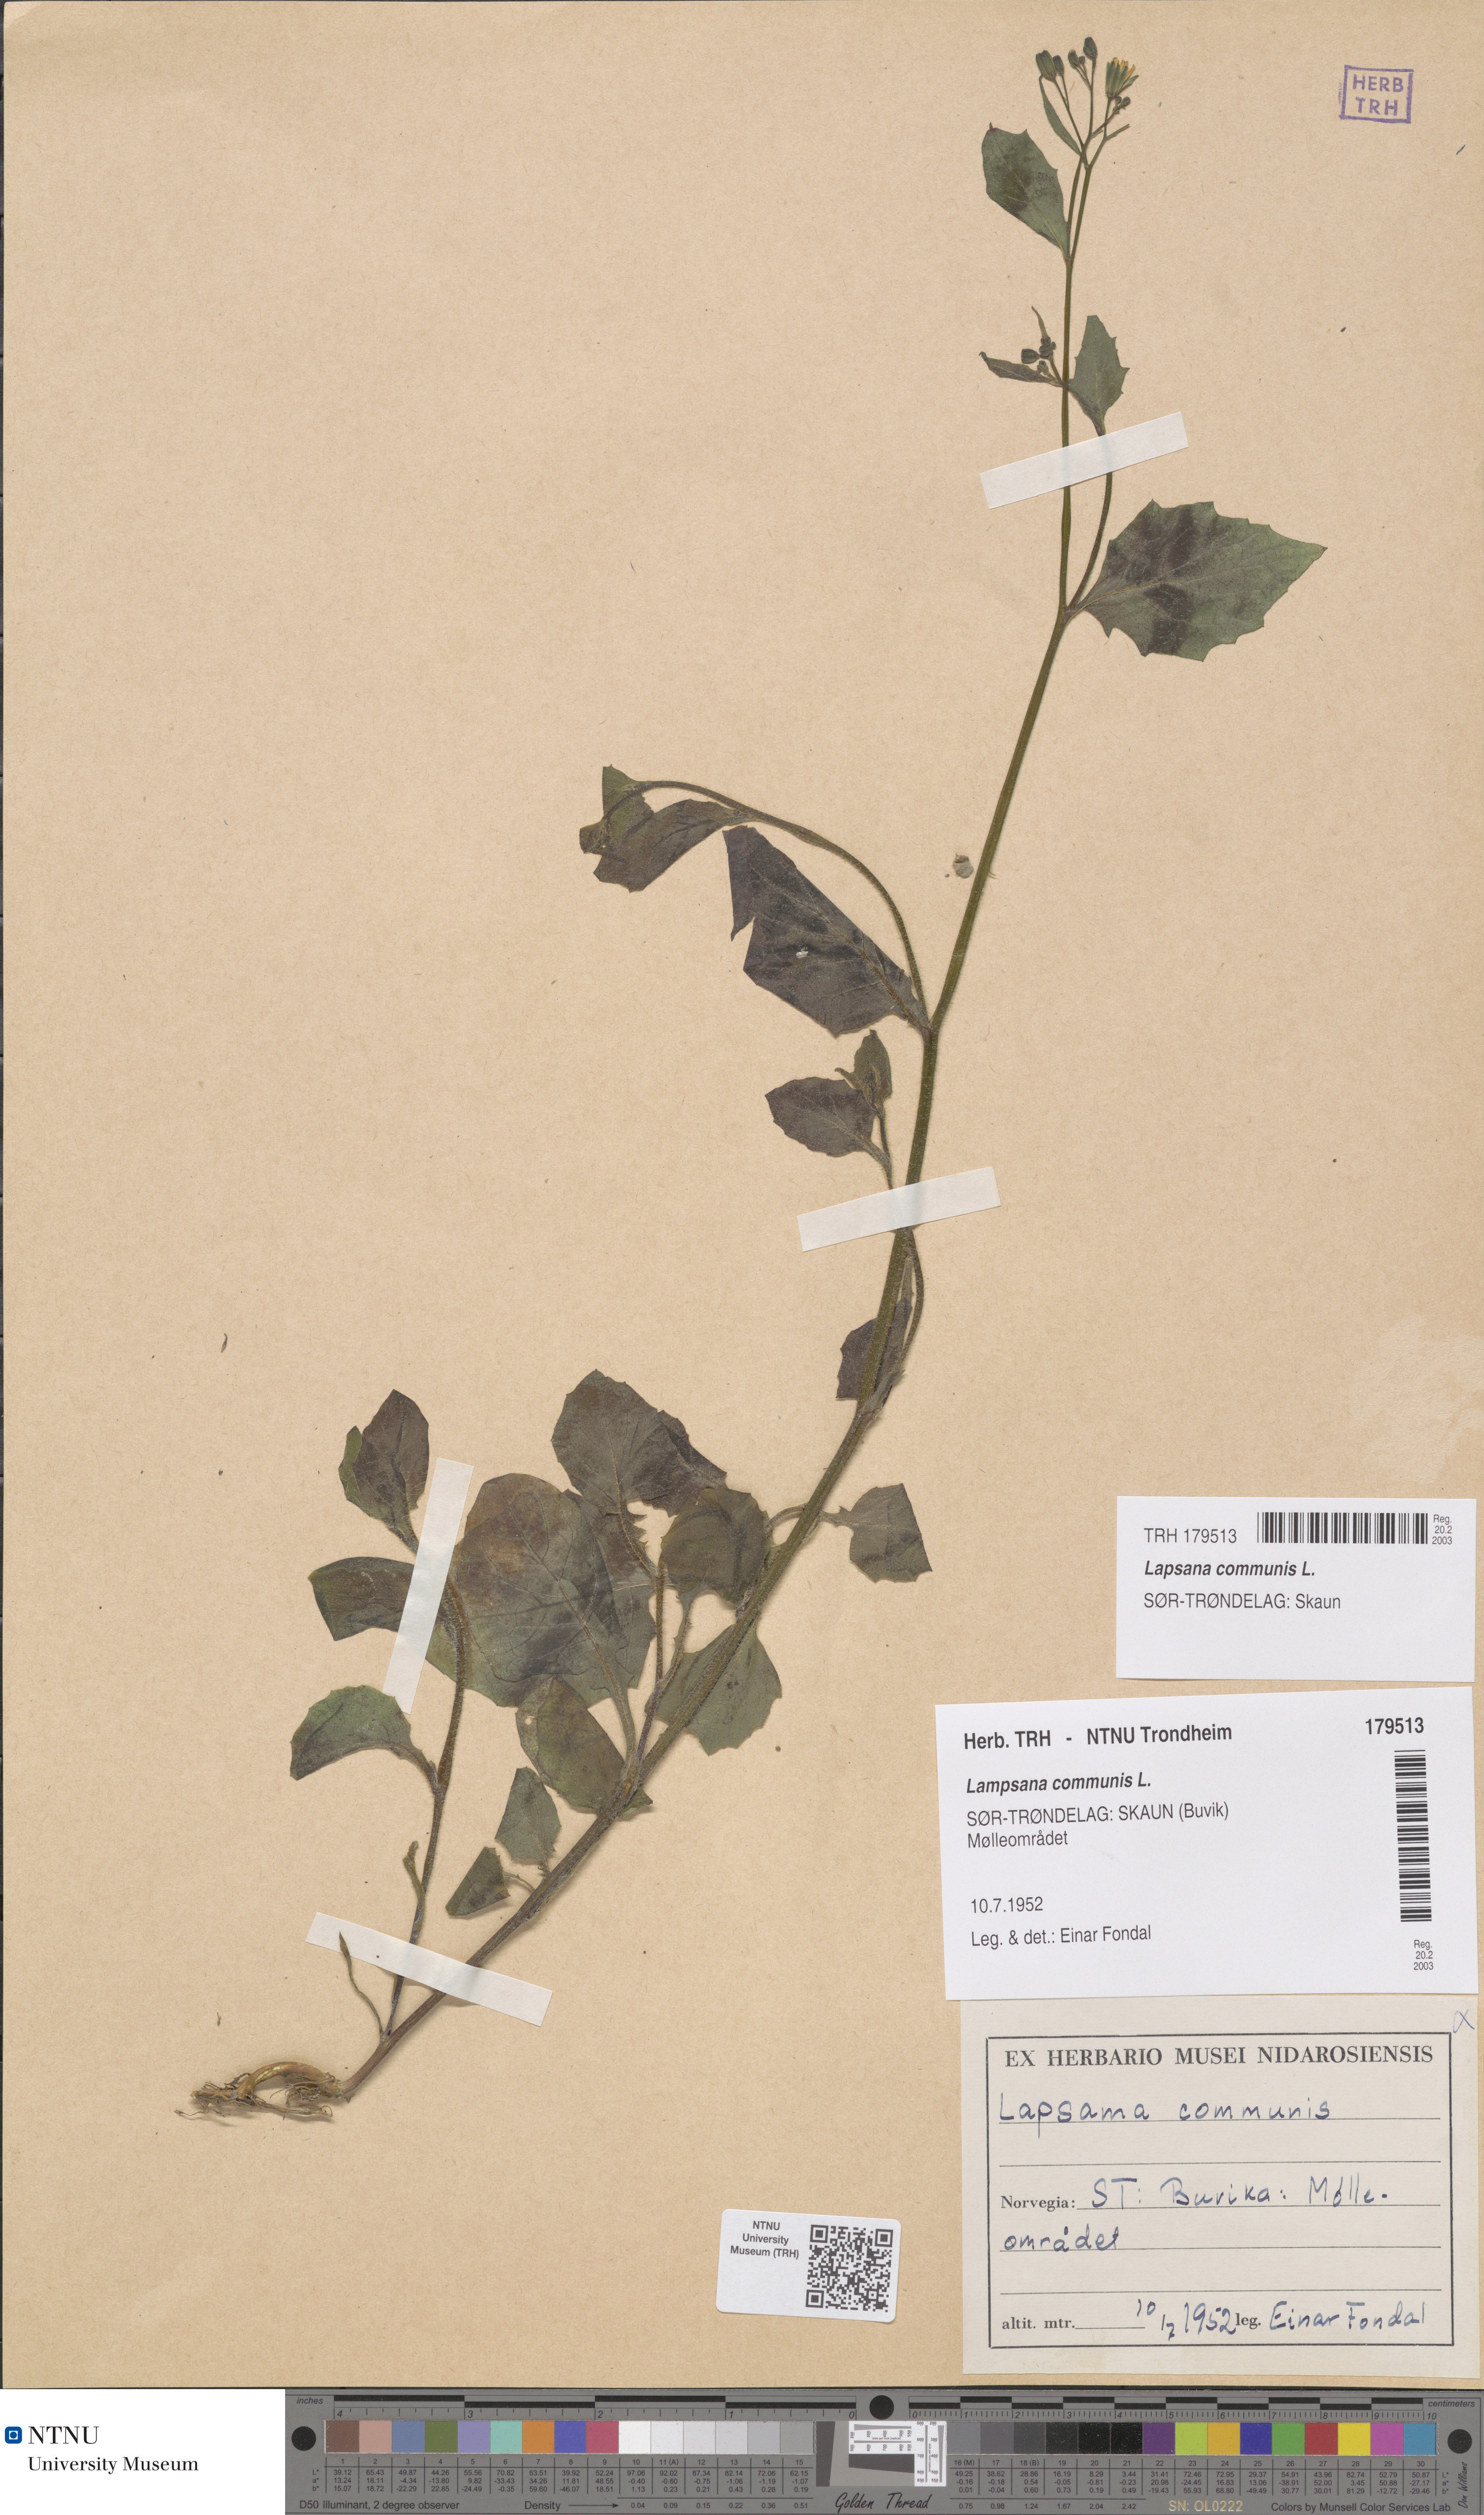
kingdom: Plantae
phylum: Tracheophyta
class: Magnoliopsida
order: Asterales
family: Asteraceae
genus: Lapsana
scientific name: Lapsana communis
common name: Nipplewort
